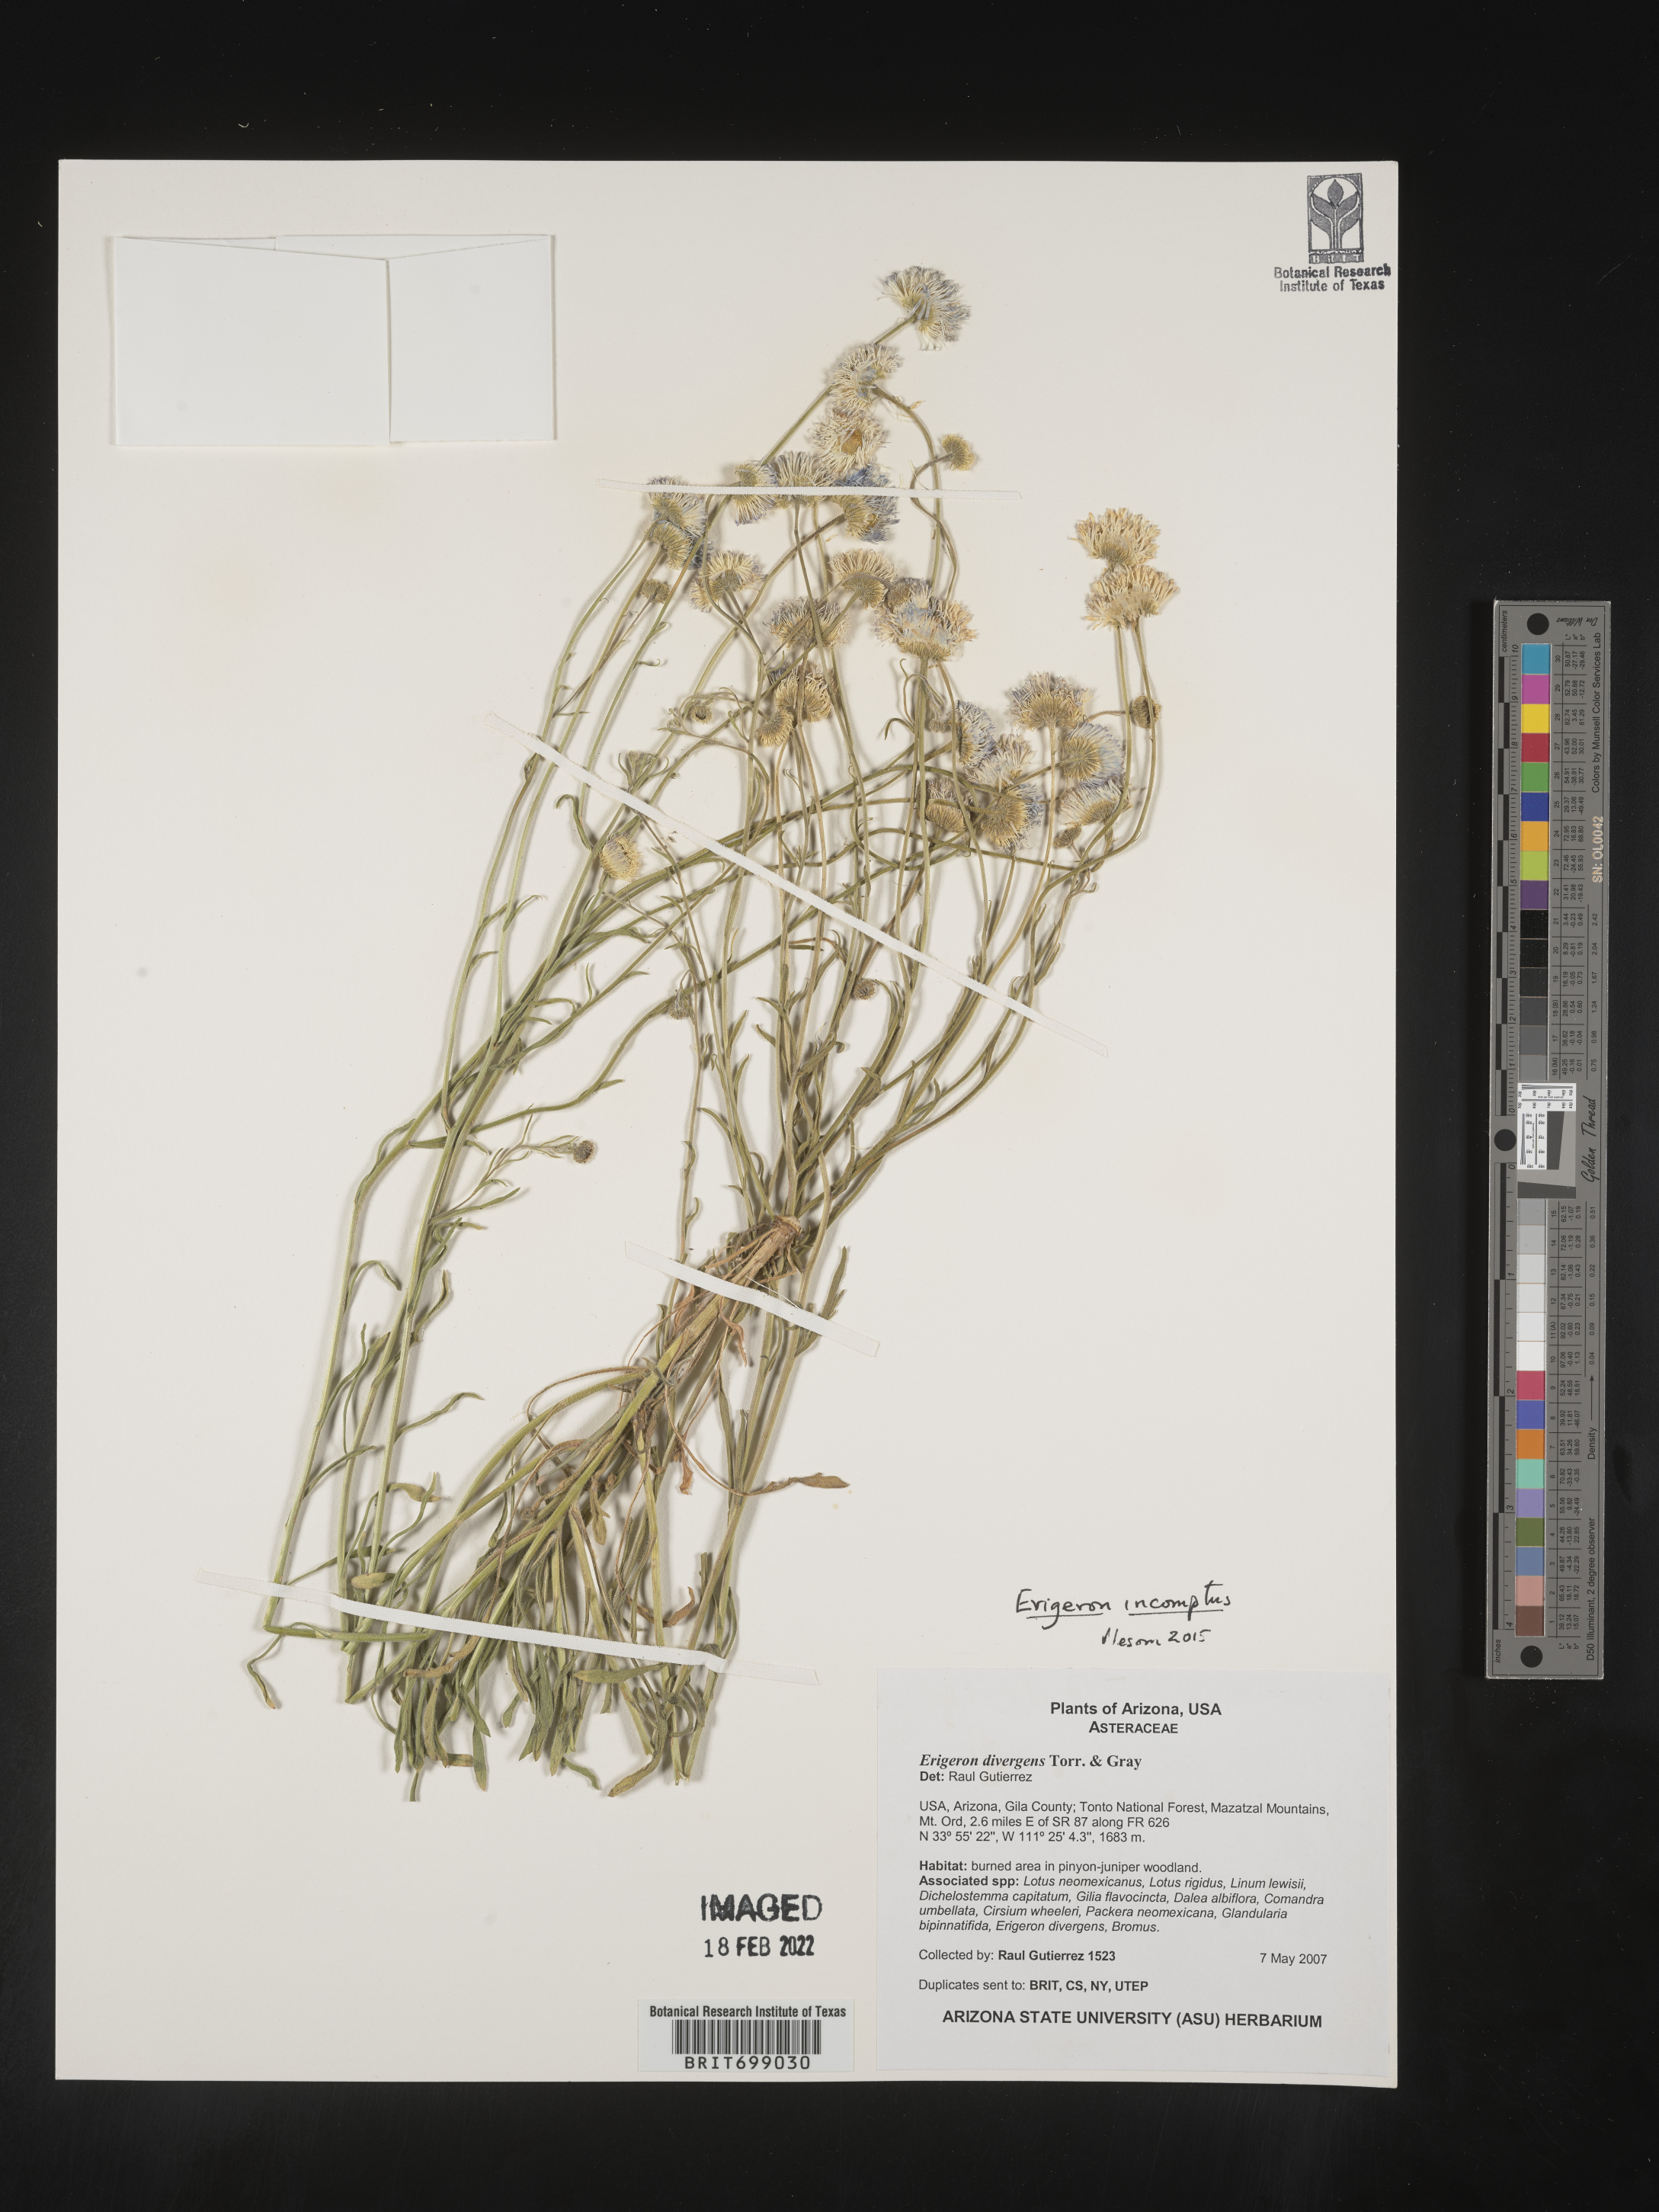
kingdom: Plantae
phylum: Tracheophyta
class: Magnoliopsida
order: Asterales
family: Asteraceae
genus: Erigeron
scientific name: Erigeron tracyi
